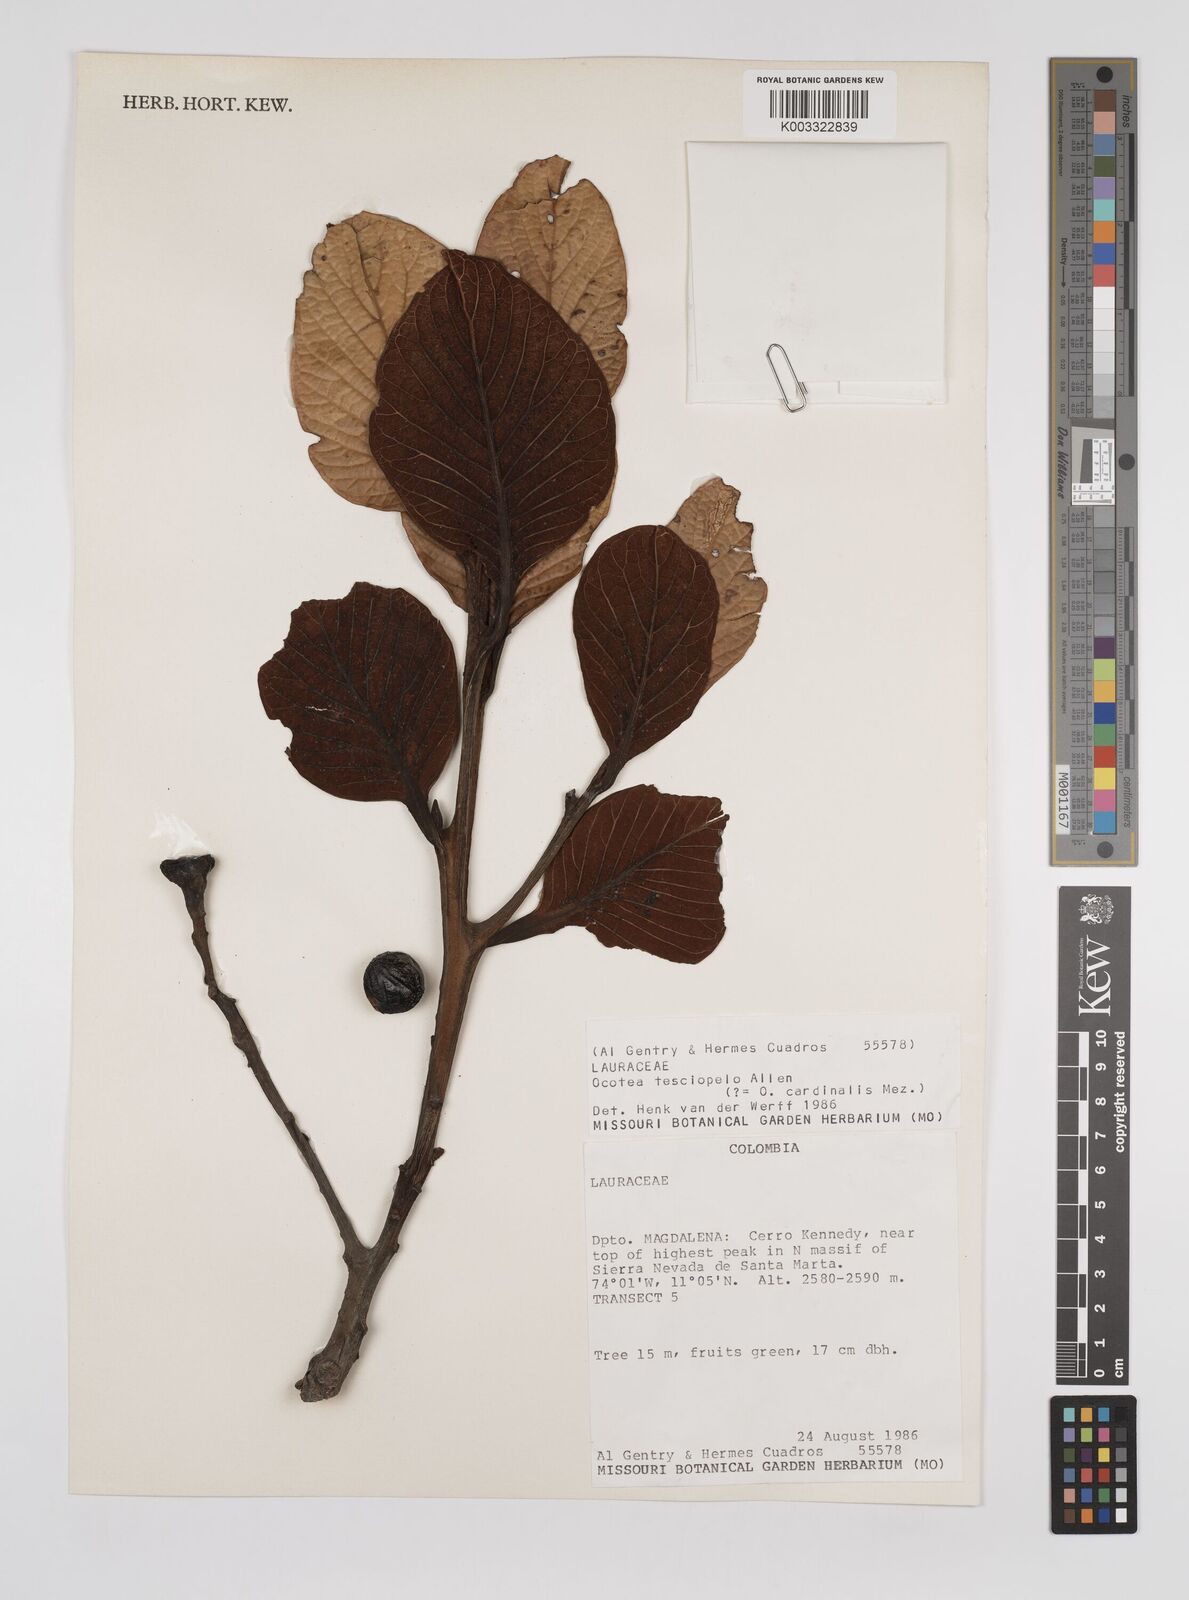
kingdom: Plantae
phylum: Tracheophyta
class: Magnoliopsida
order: Laurales
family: Lauraceae
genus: Ocotea
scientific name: Ocotea terciopelo
